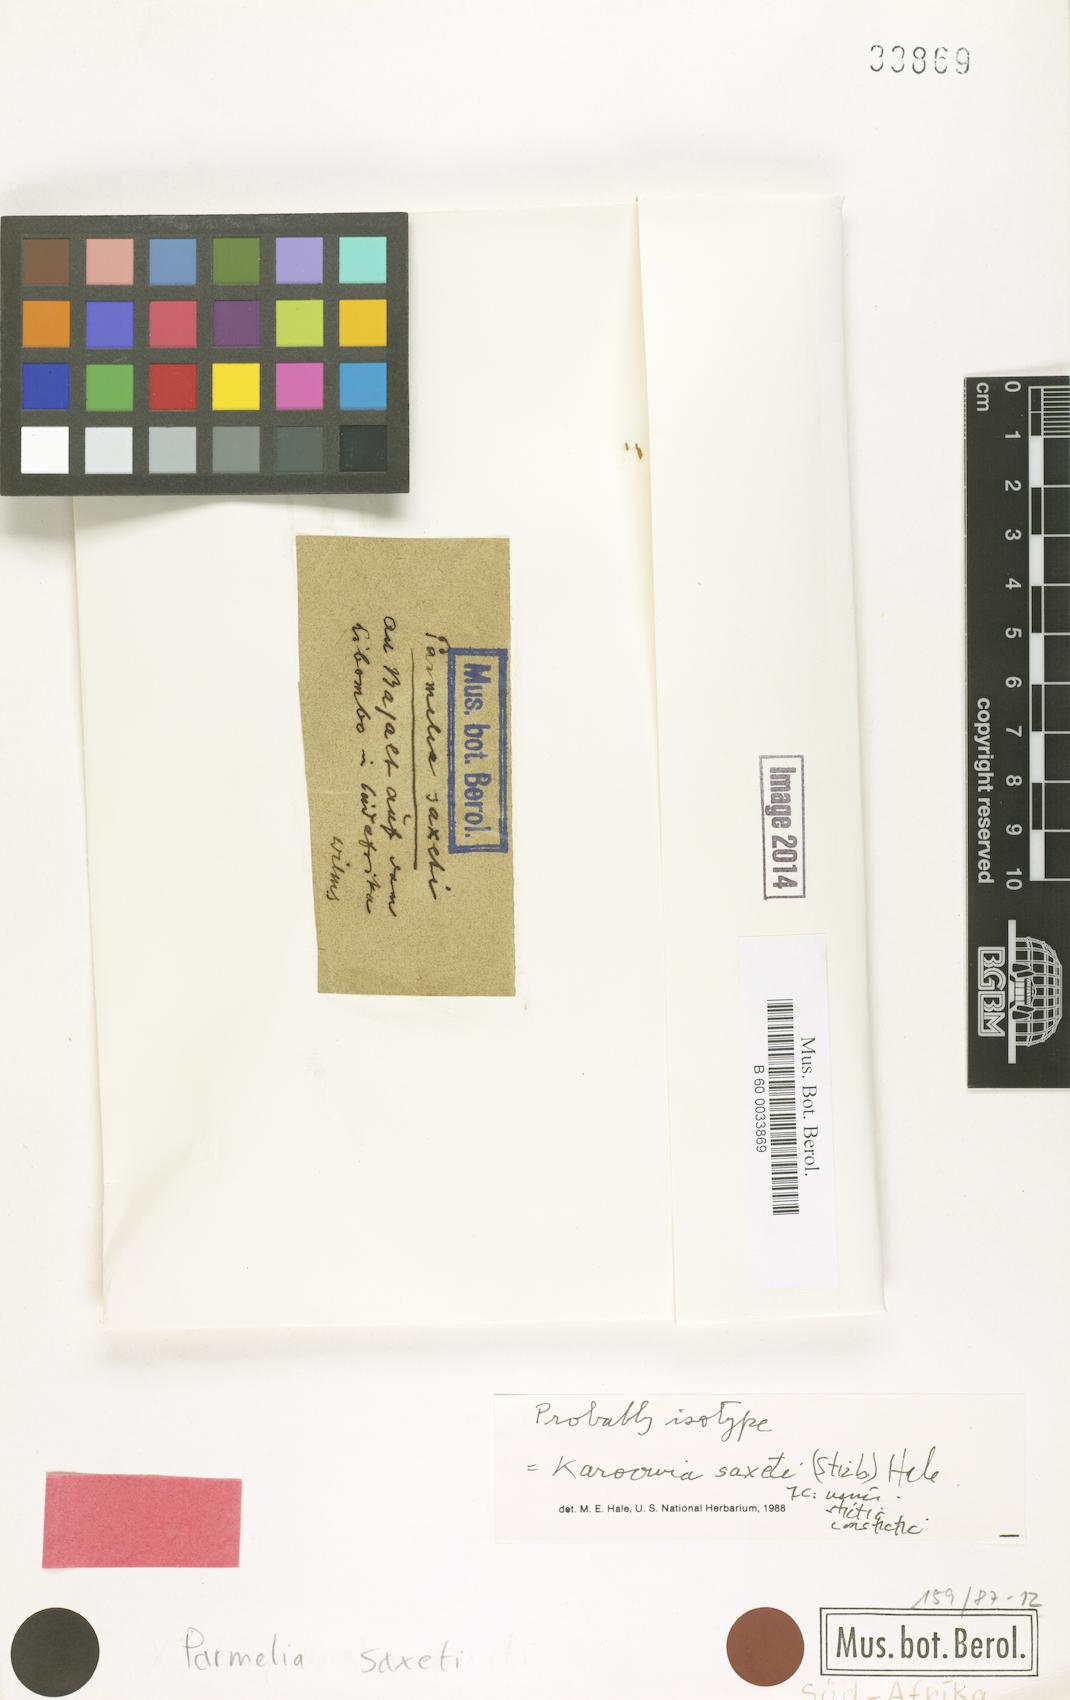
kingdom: Fungi
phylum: Ascomycota
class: Lecanoromycetes
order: Lecanorales
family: Parmeliaceae
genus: Xanthoparmelia
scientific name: Xanthoparmelia saxeti
